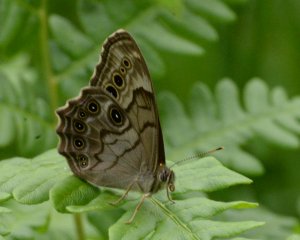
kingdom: Animalia
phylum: Arthropoda
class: Insecta
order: Lepidoptera
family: Nymphalidae
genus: Lethe
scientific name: Lethe anthedon
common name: Northern Pearly-Eye
